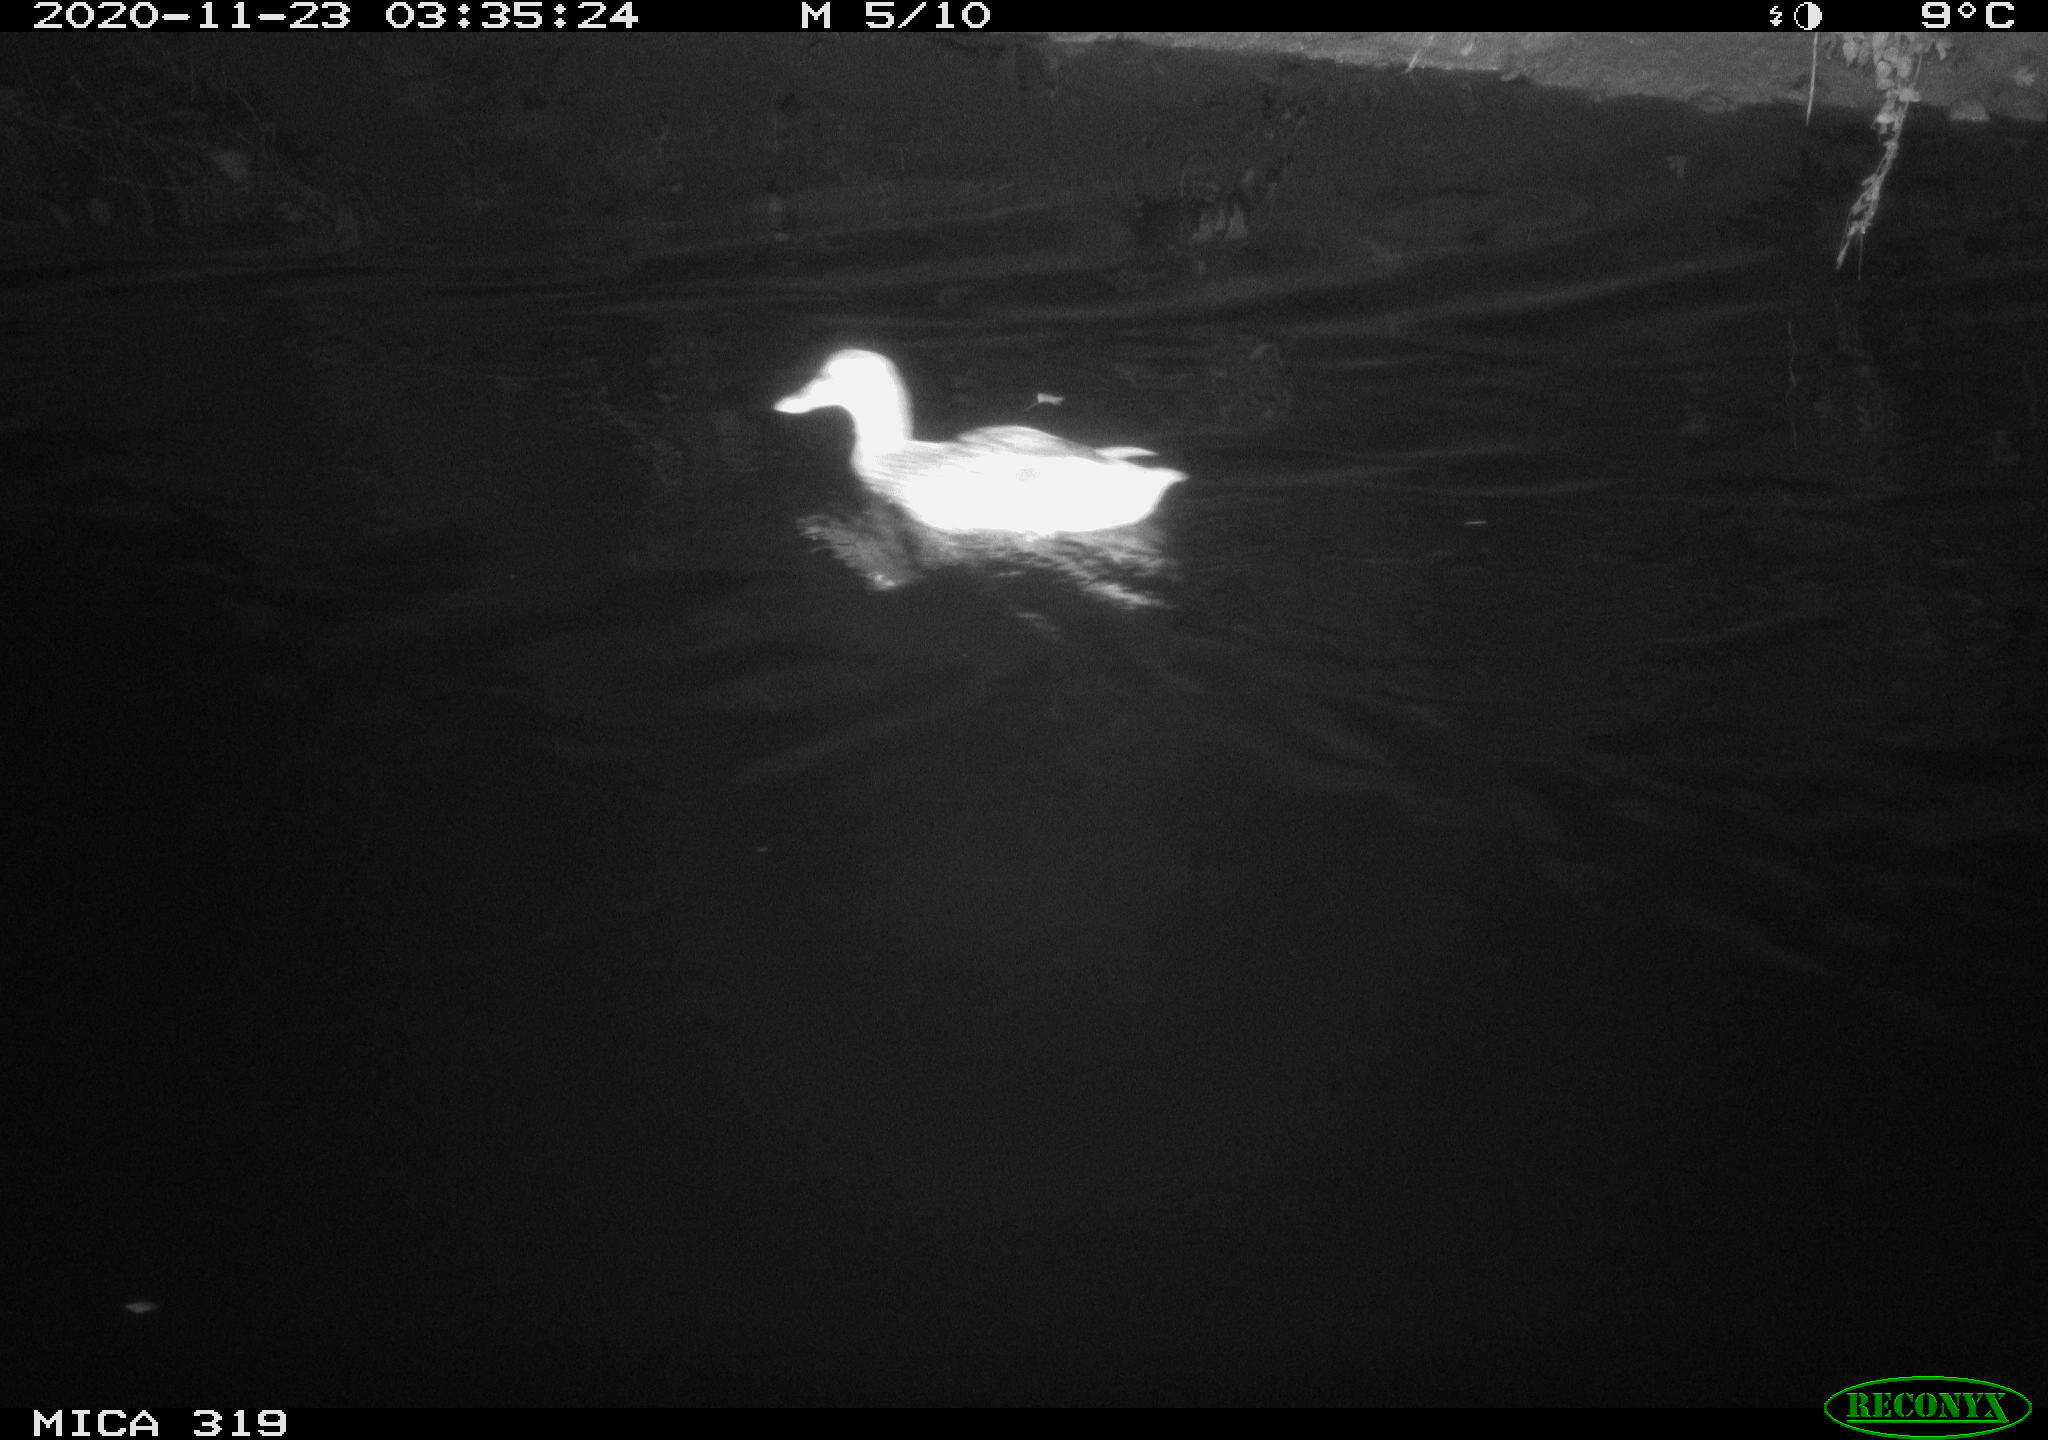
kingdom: Animalia
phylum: Chordata
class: Aves
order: Anseriformes
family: Anatidae
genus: Anas
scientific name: Anas platyrhynchos
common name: Mallard
